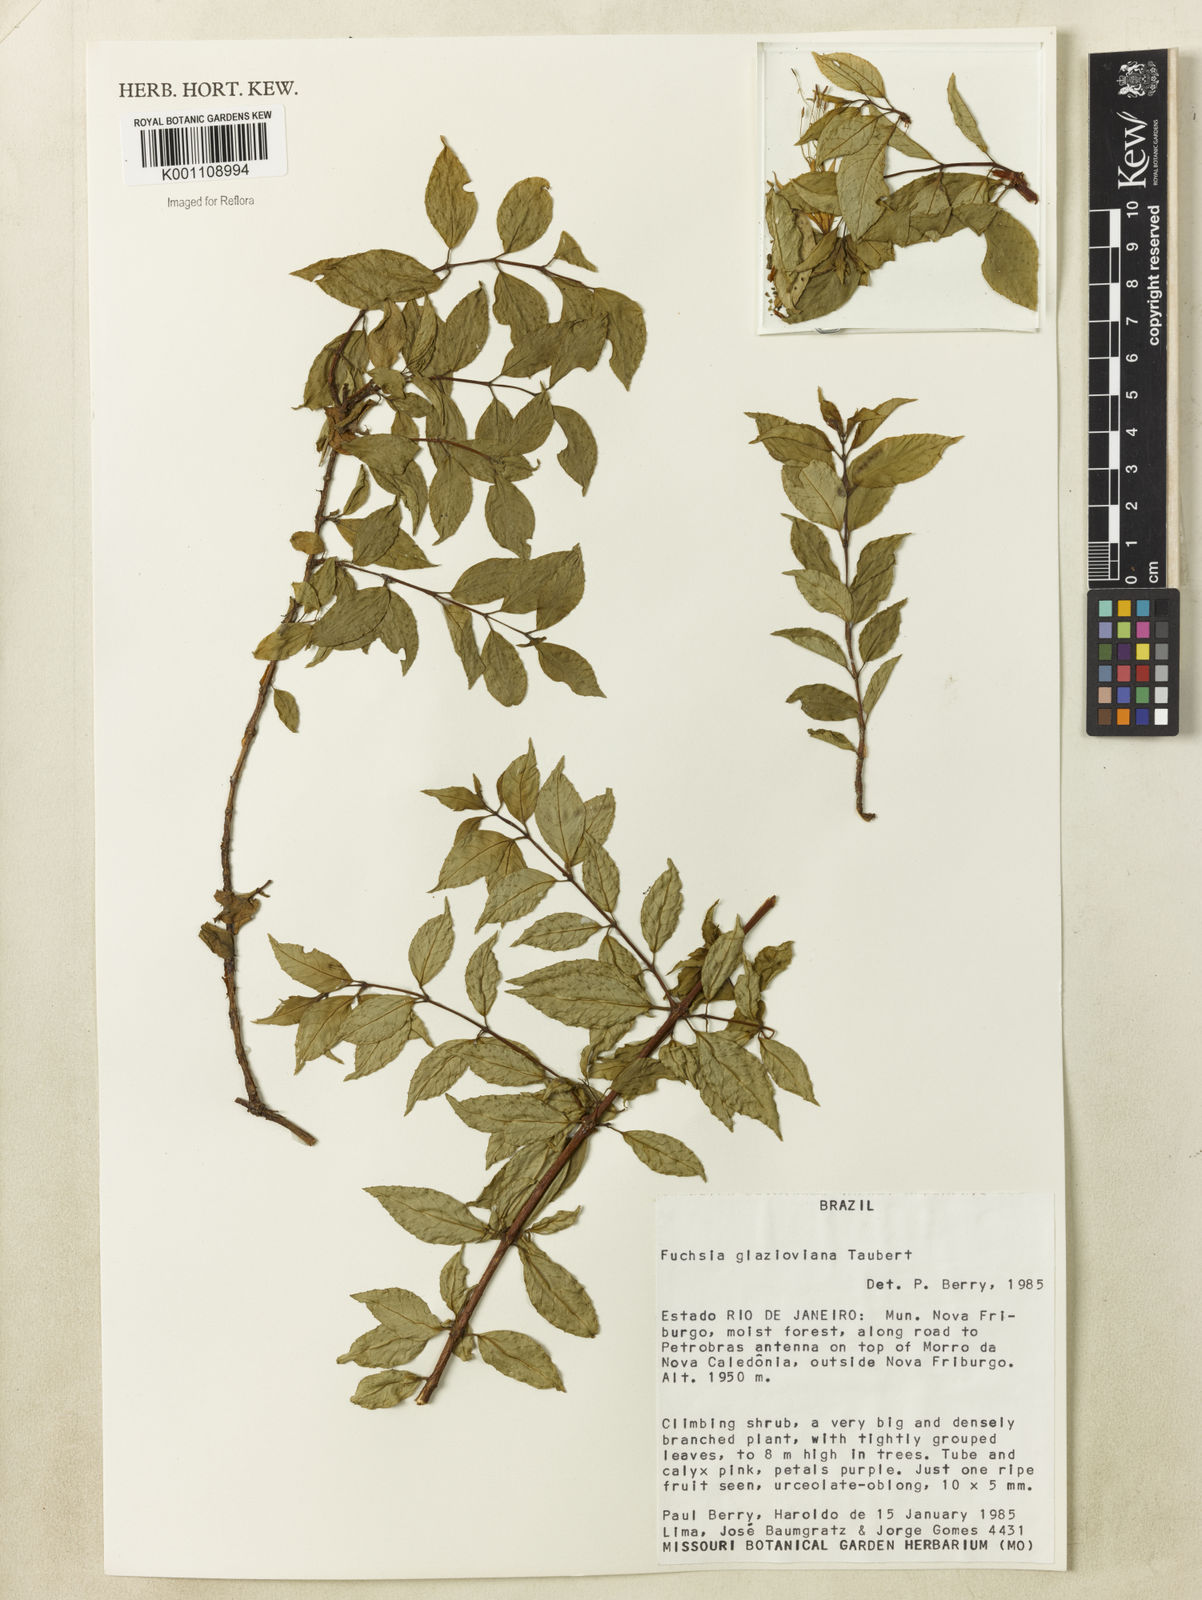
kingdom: Plantae
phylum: Tracheophyta
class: Magnoliopsida
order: Myrtales
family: Onagraceae
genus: Fuchsia
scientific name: Fuchsia glazioviana
